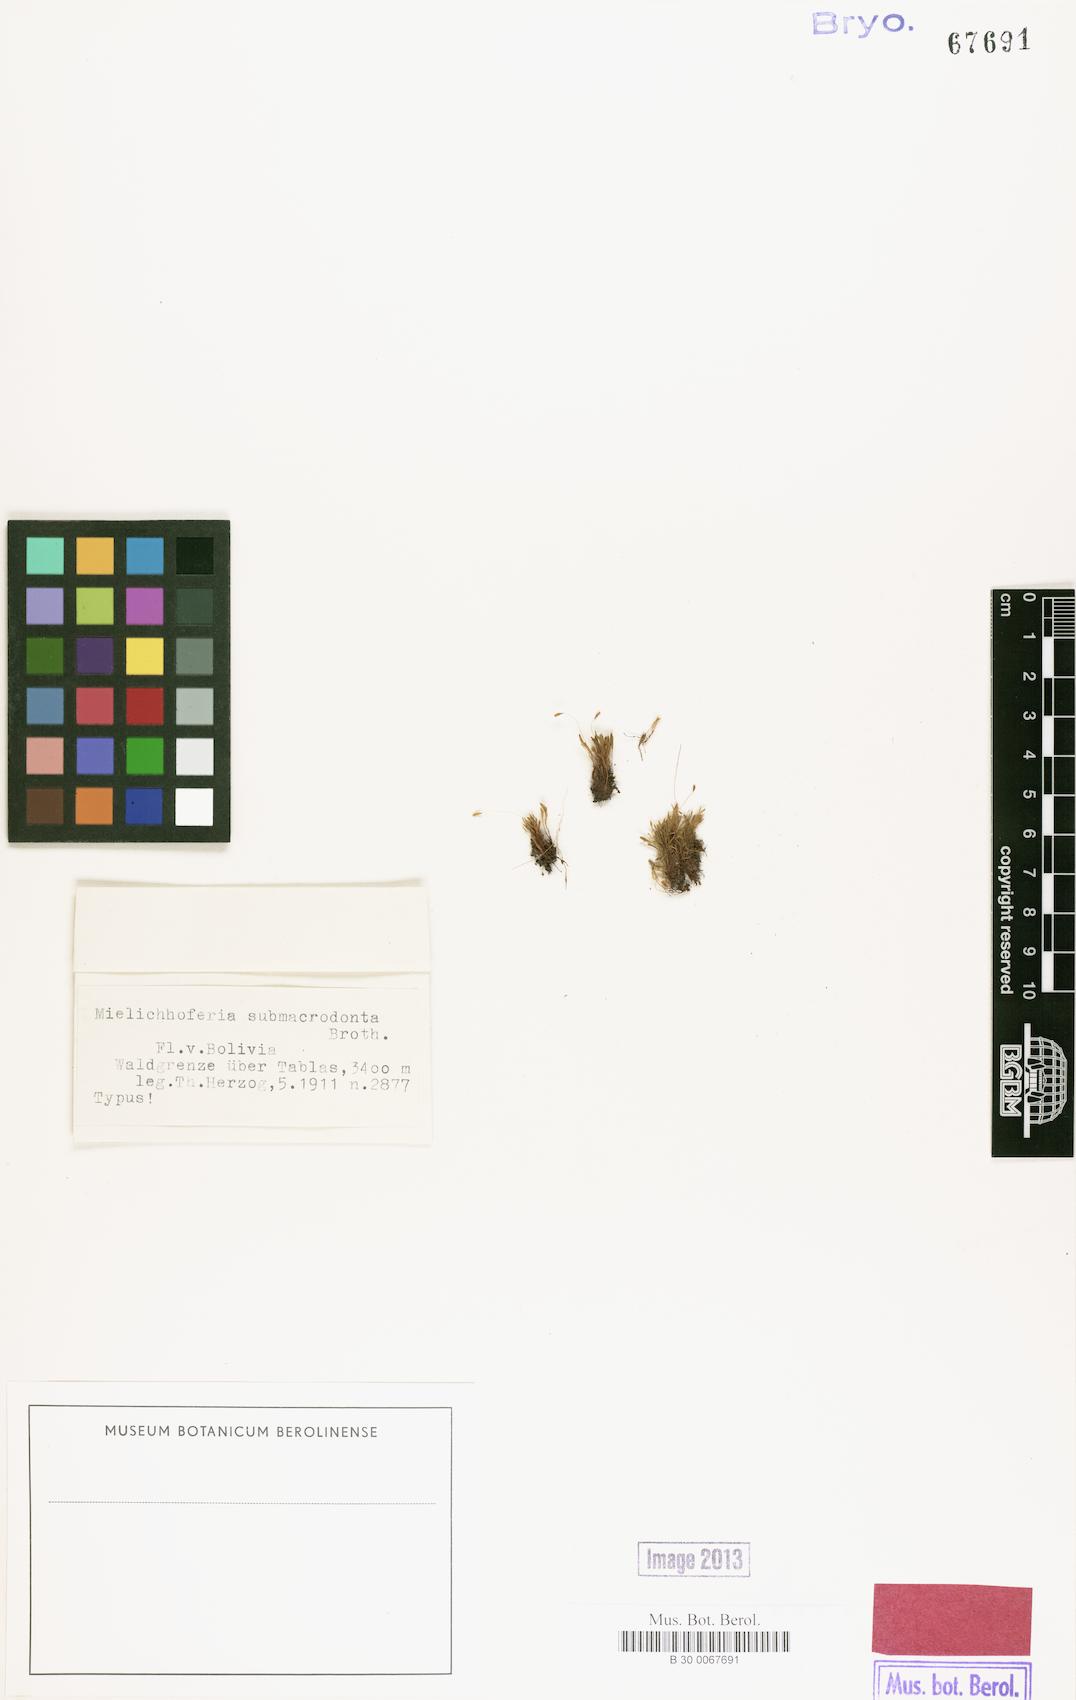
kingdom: Plantae
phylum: Bryophyta
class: Bryopsida
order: Bryales
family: Mniaceae
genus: Schizymenium
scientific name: Schizymenium submacrodontum
